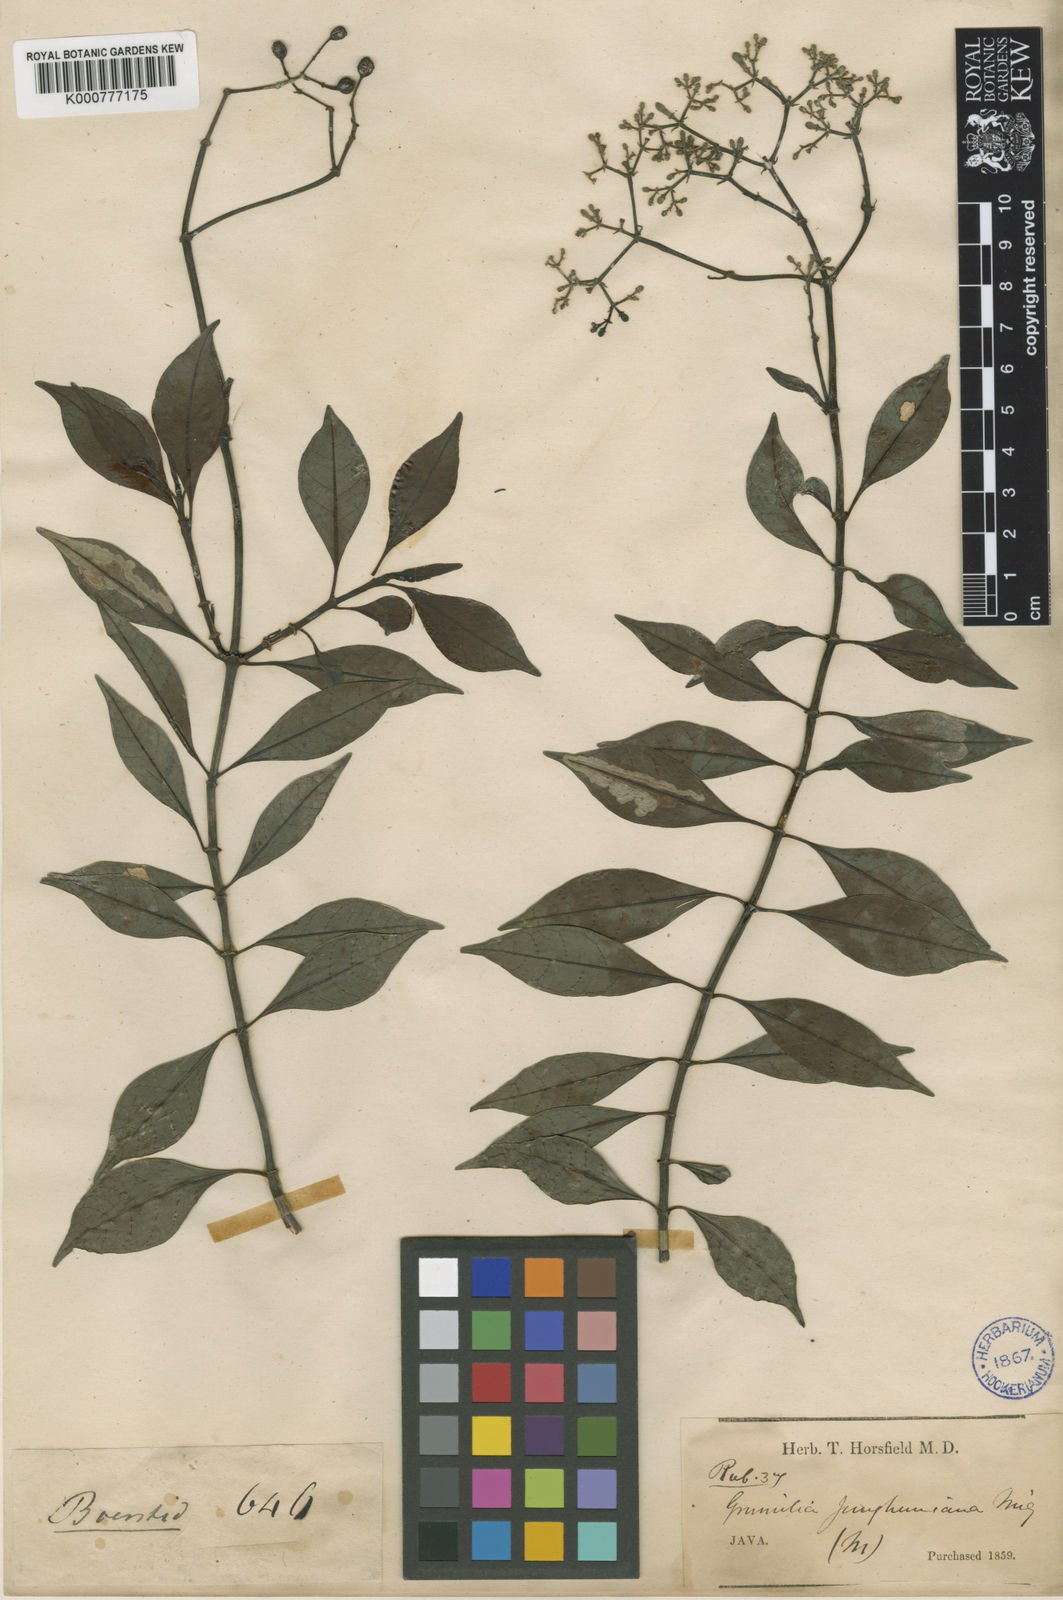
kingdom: Plantae
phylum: Tracheophyta
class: Magnoliopsida
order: Gentianales
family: Rubiaceae
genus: Psychotria
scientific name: Psychotria sarmentosa
